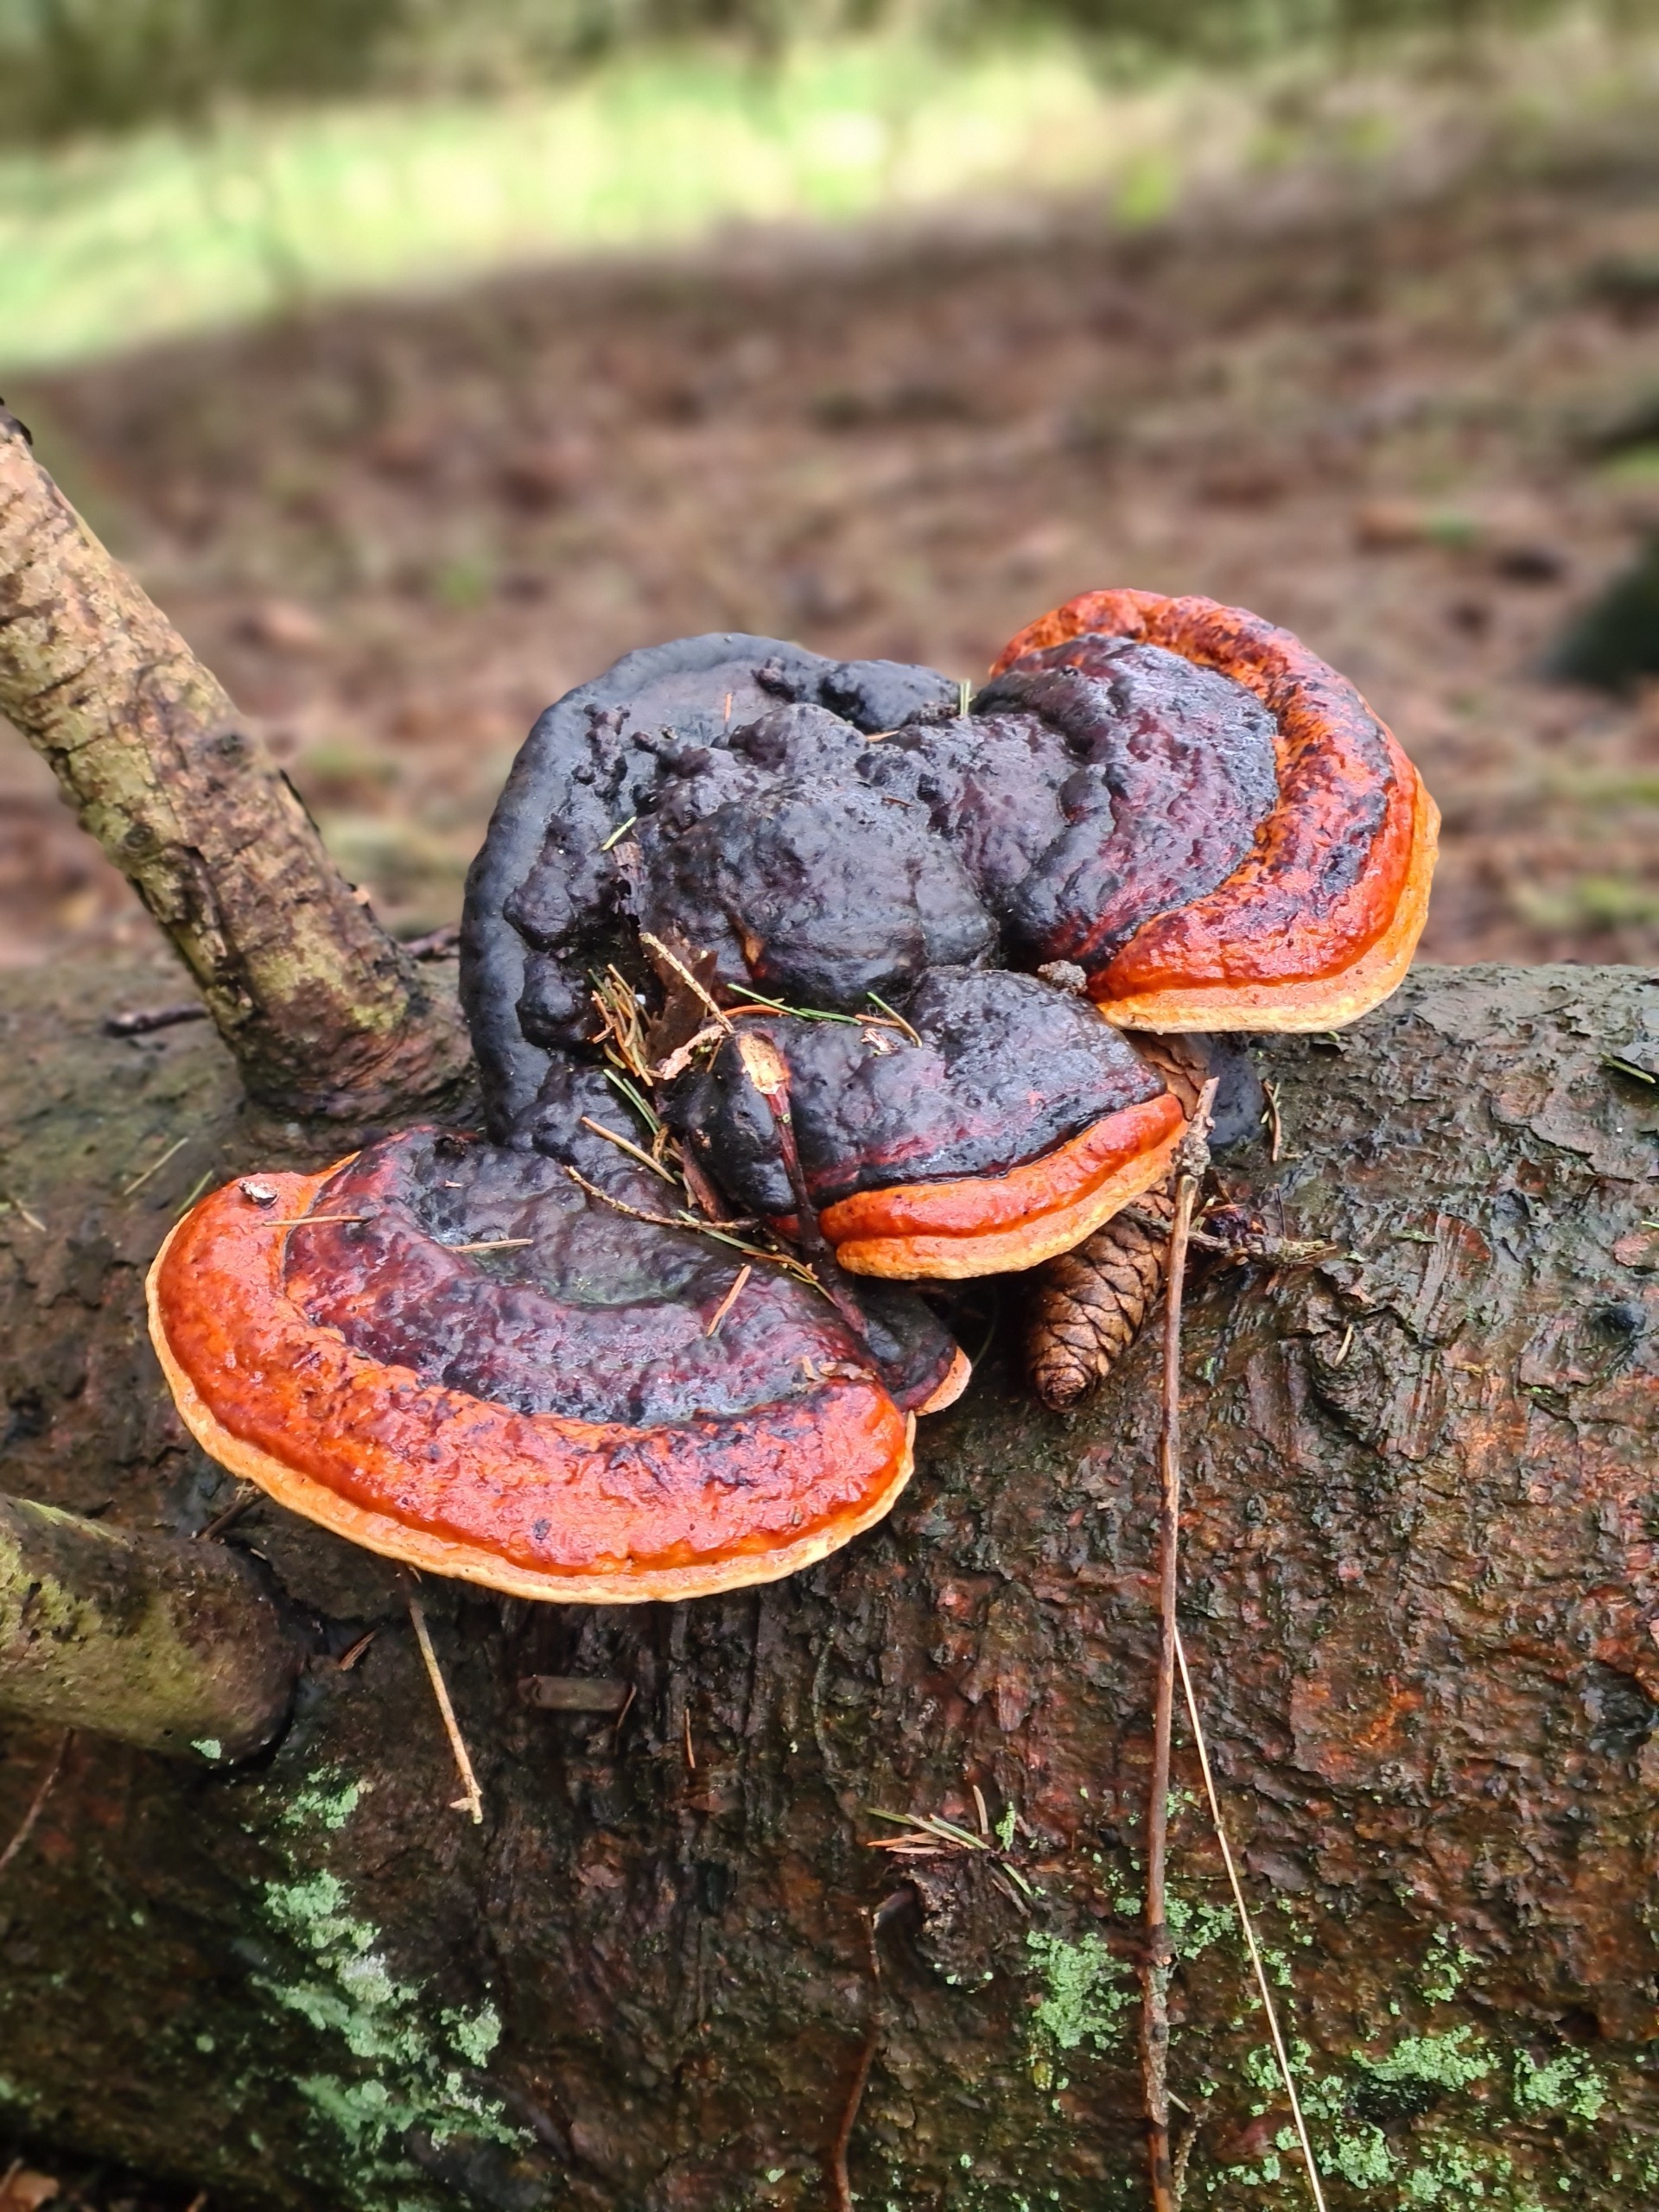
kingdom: Fungi
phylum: Basidiomycota
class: Agaricomycetes
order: Polyporales
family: Fomitopsidaceae
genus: Fomitopsis
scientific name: Fomitopsis pinicola
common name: Randbæltet hovporesvamp
